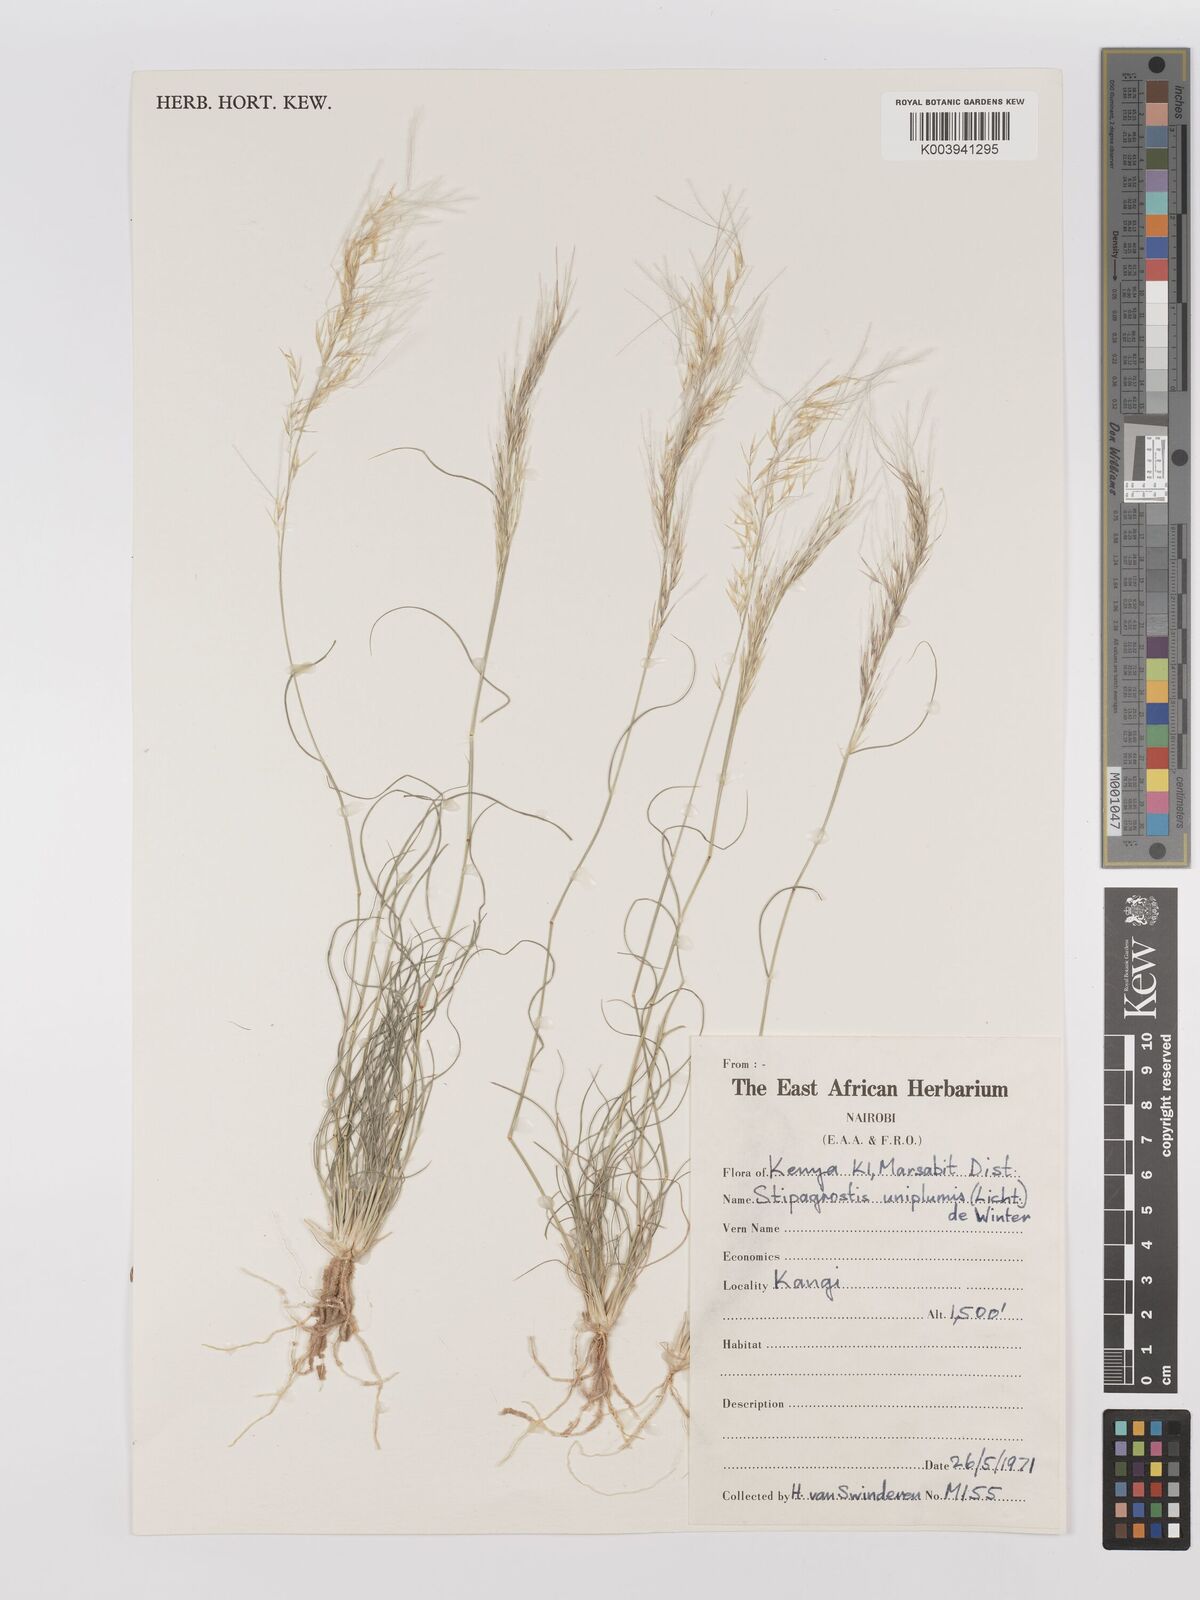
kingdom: Plantae
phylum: Tracheophyta
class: Liliopsida
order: Poales
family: Poaceae
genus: Stipagrostis
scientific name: Stipagrostis uniplumis
